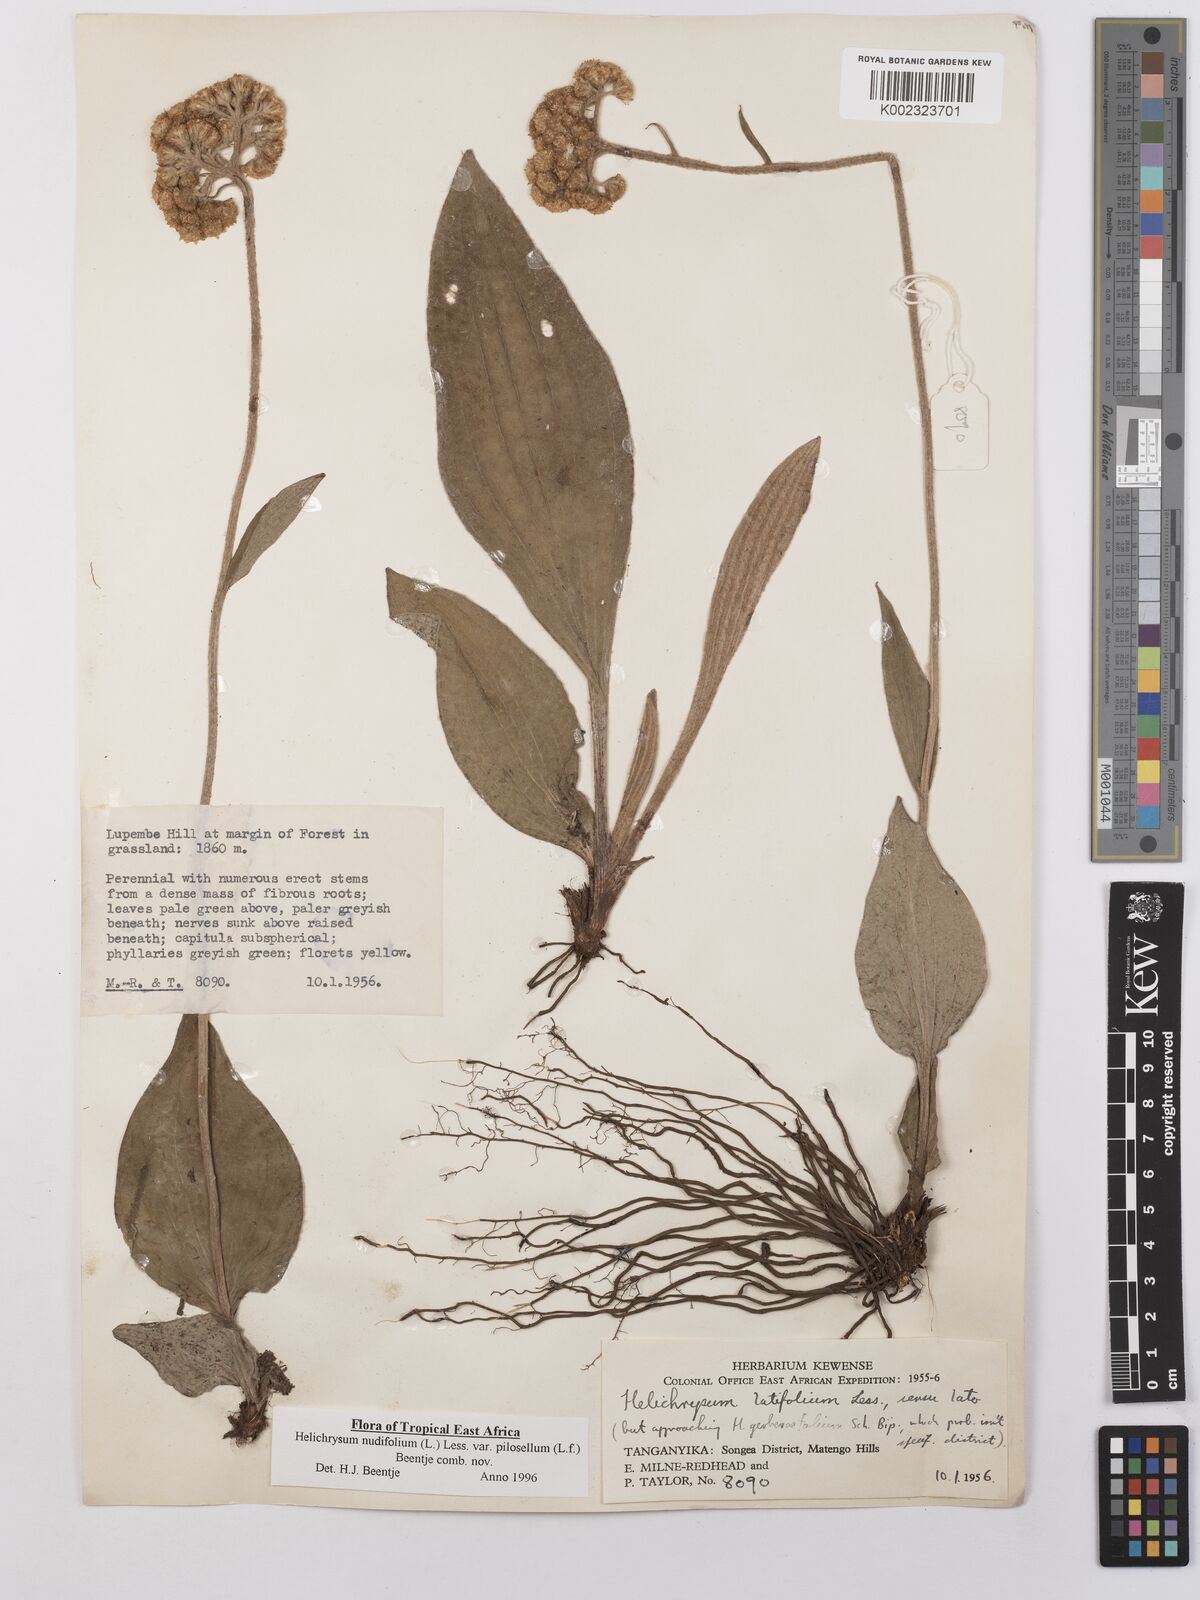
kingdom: Plantae
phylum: Tracheophyta
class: Magnoliopsida
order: Asterales
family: Asteraceae
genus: Helichrysum
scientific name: Helichrysum nudifolium
